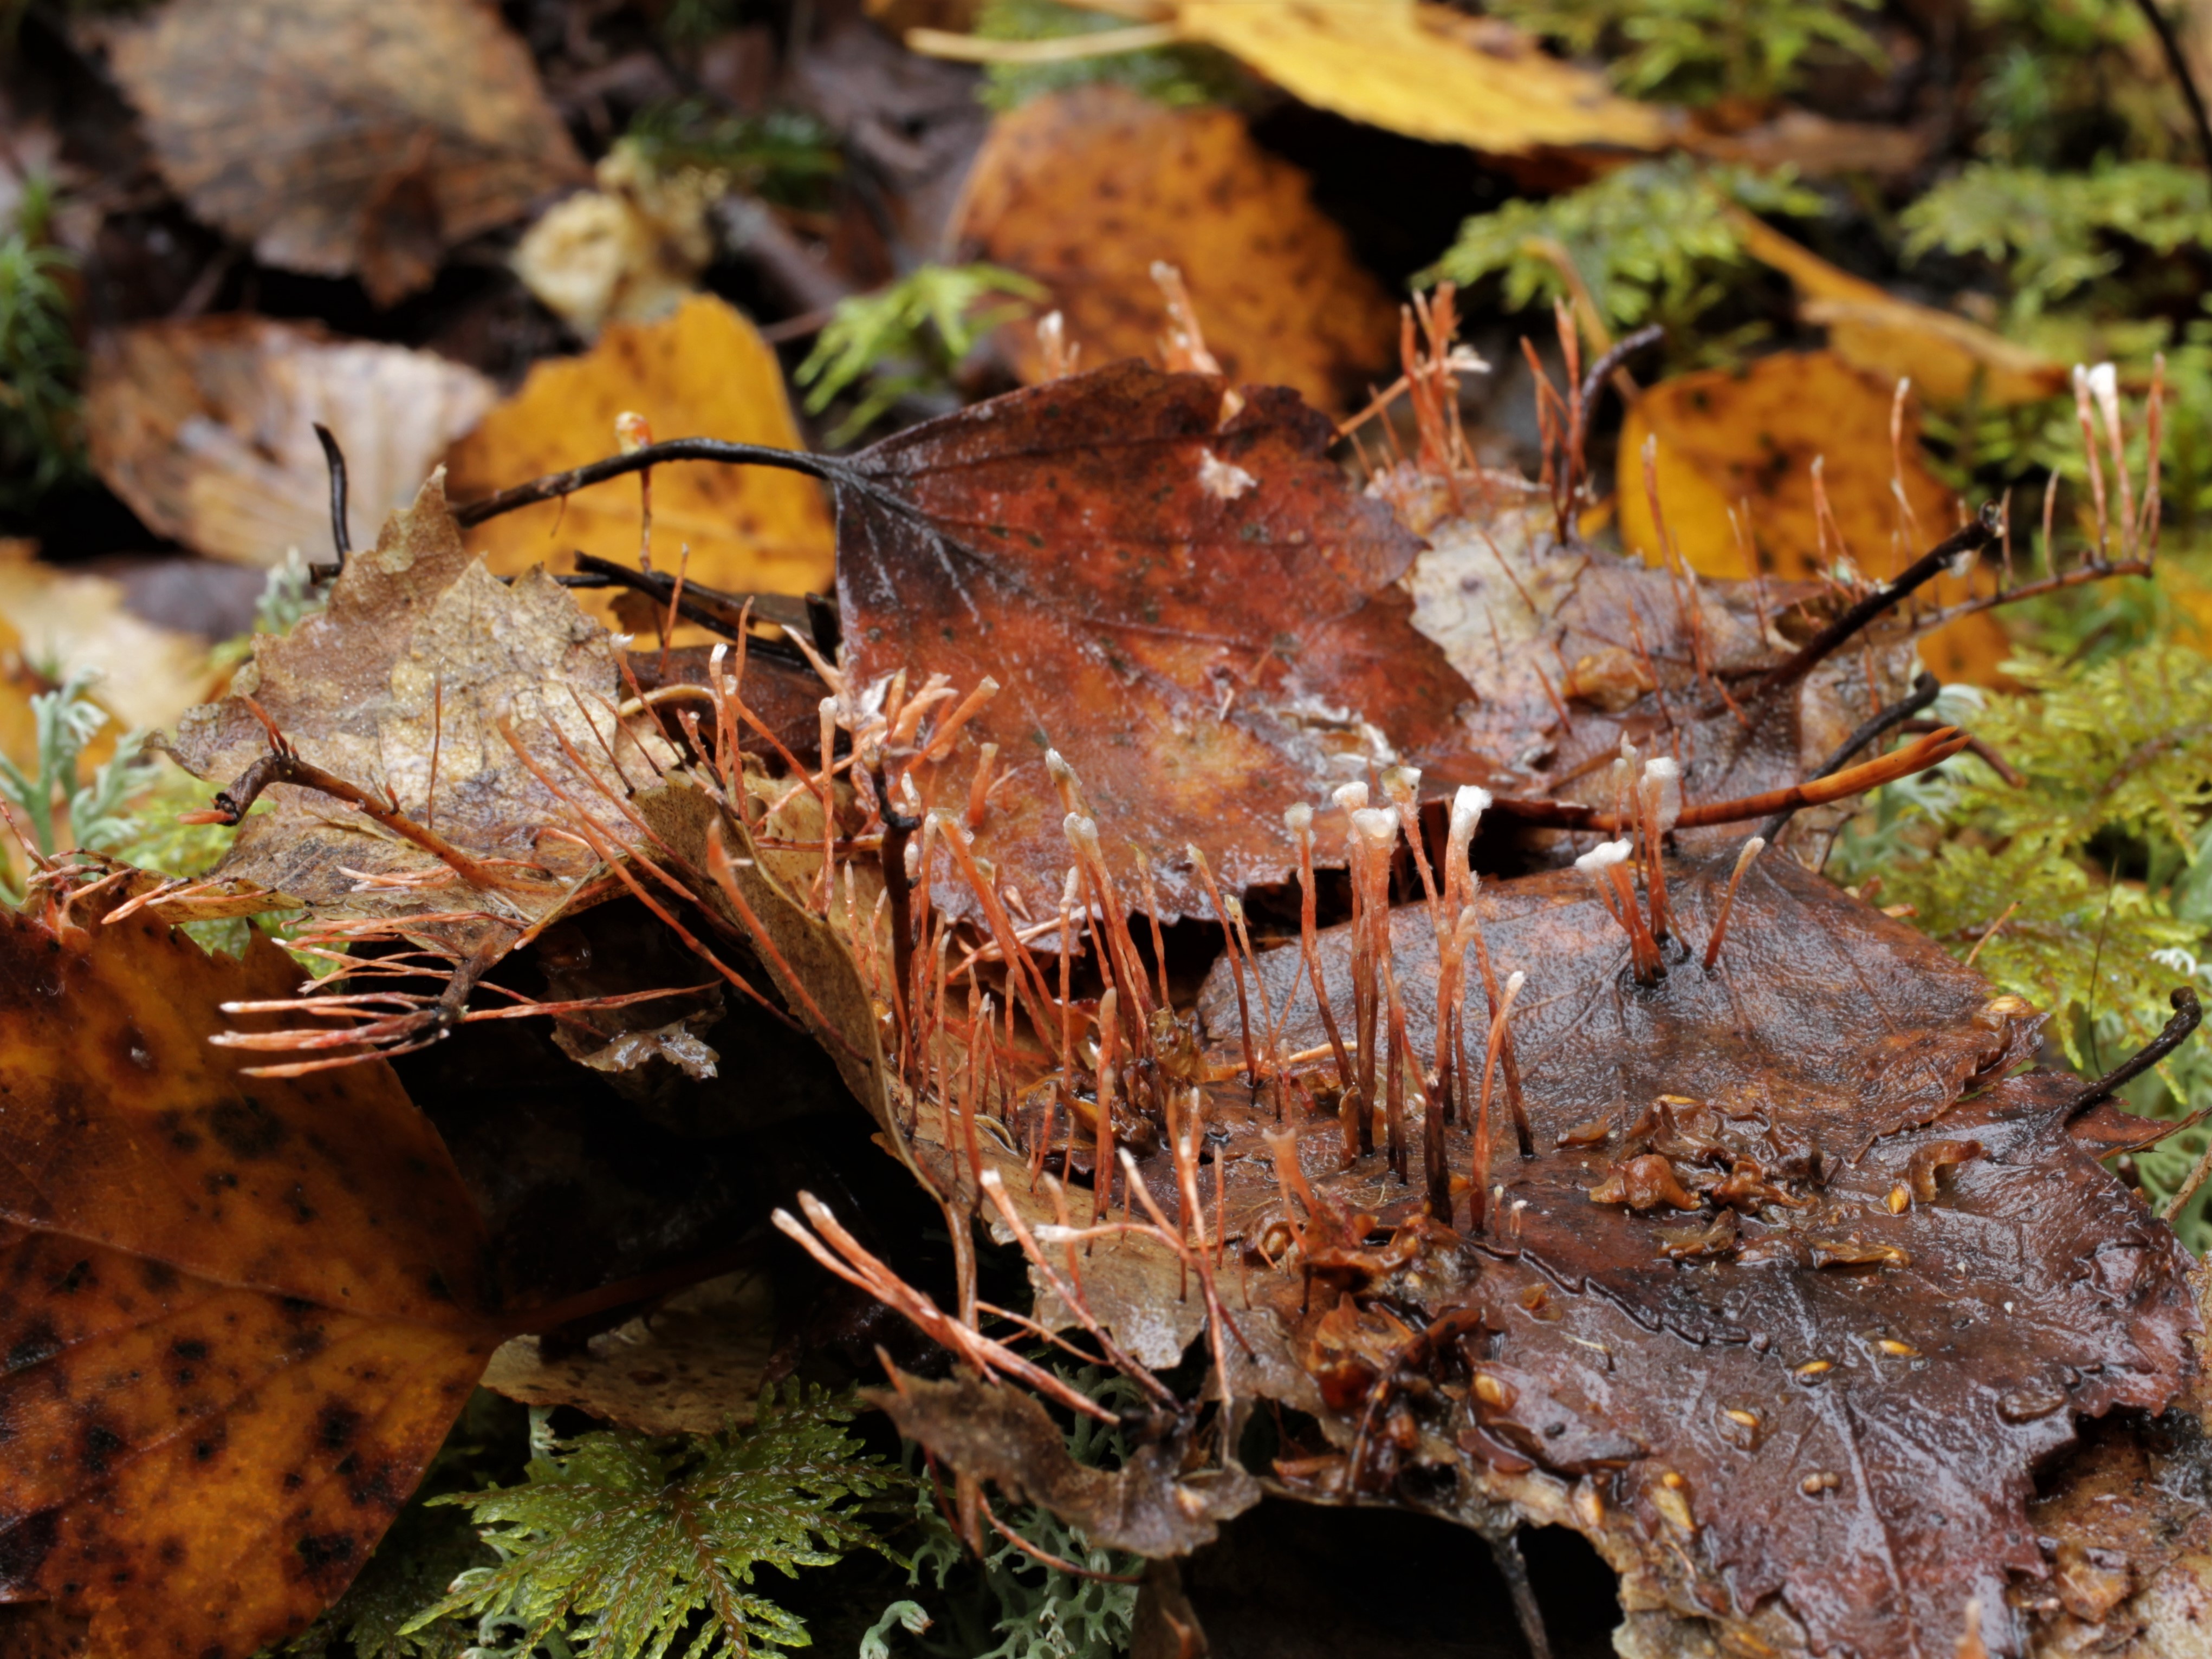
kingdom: Fungi
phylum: Ascomycota
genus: Anthina
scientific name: Anthina
